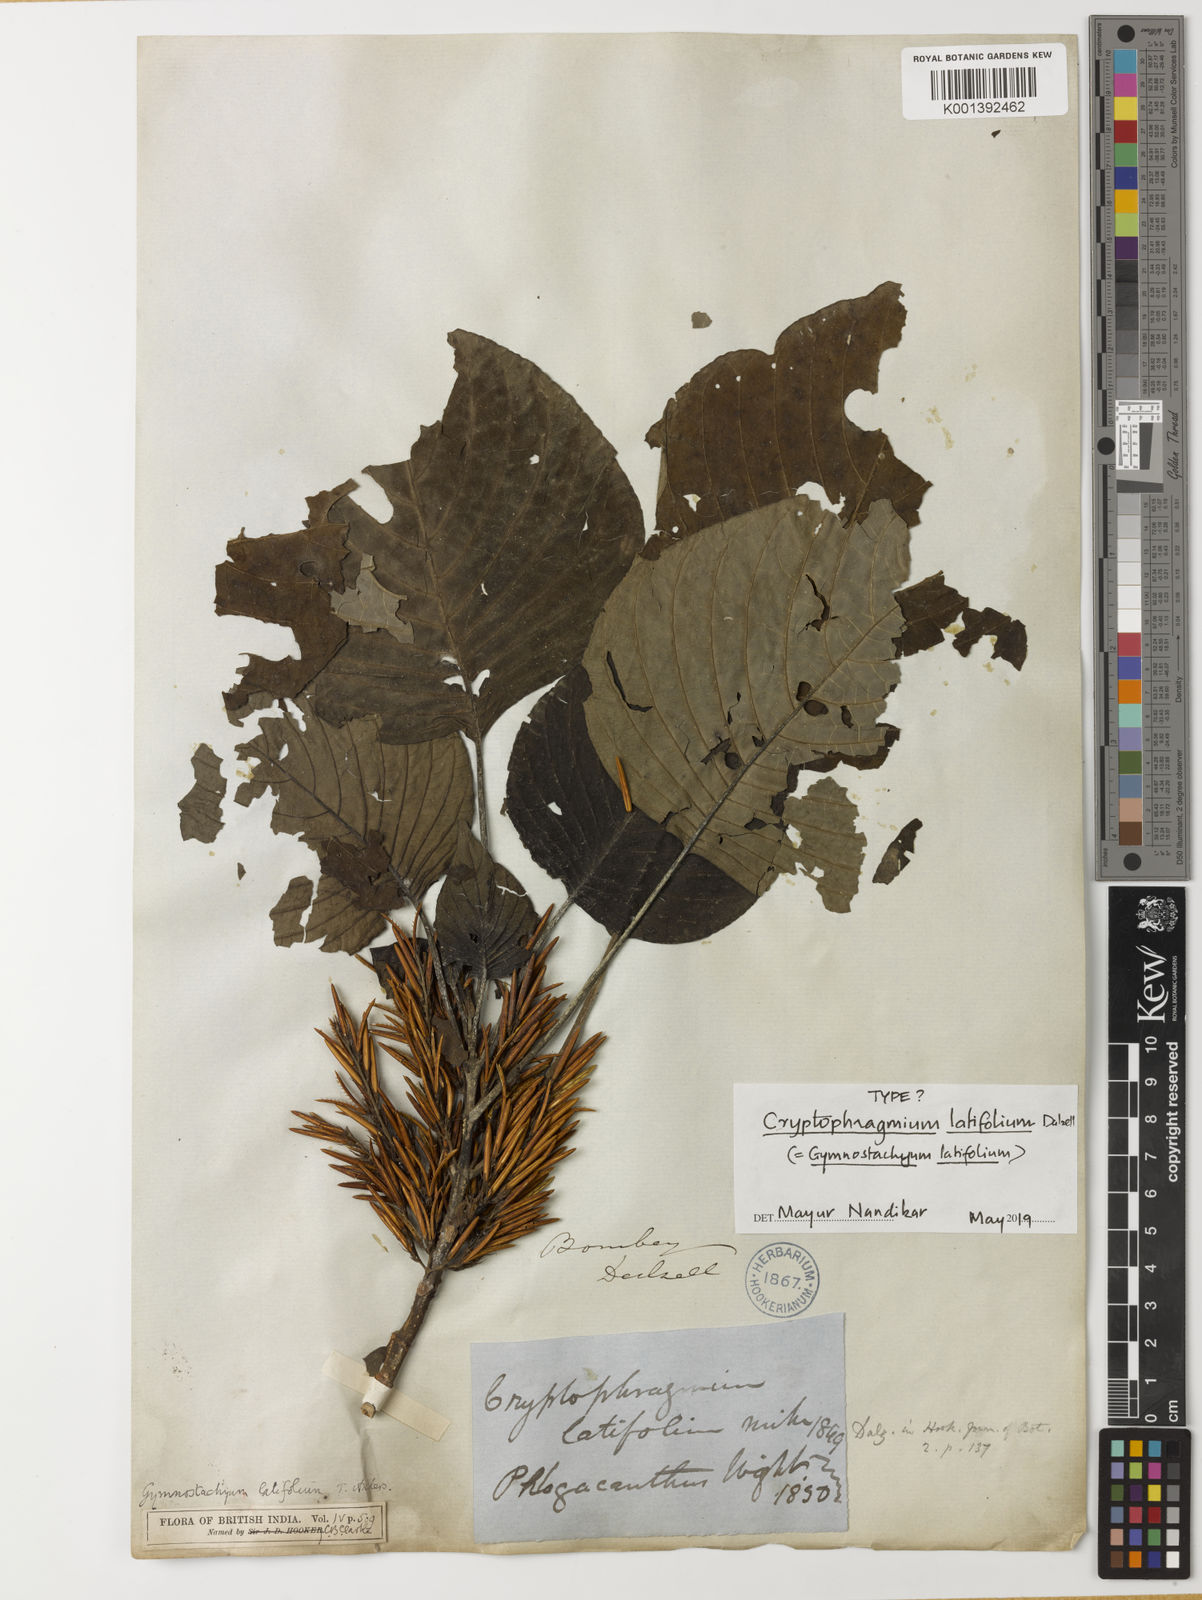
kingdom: Plantae
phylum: Tracheophyta
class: Magnoliopsida
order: Lamiales
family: Acanthaceae
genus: Gymnostachyum
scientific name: Gymnostachyum latifolium
